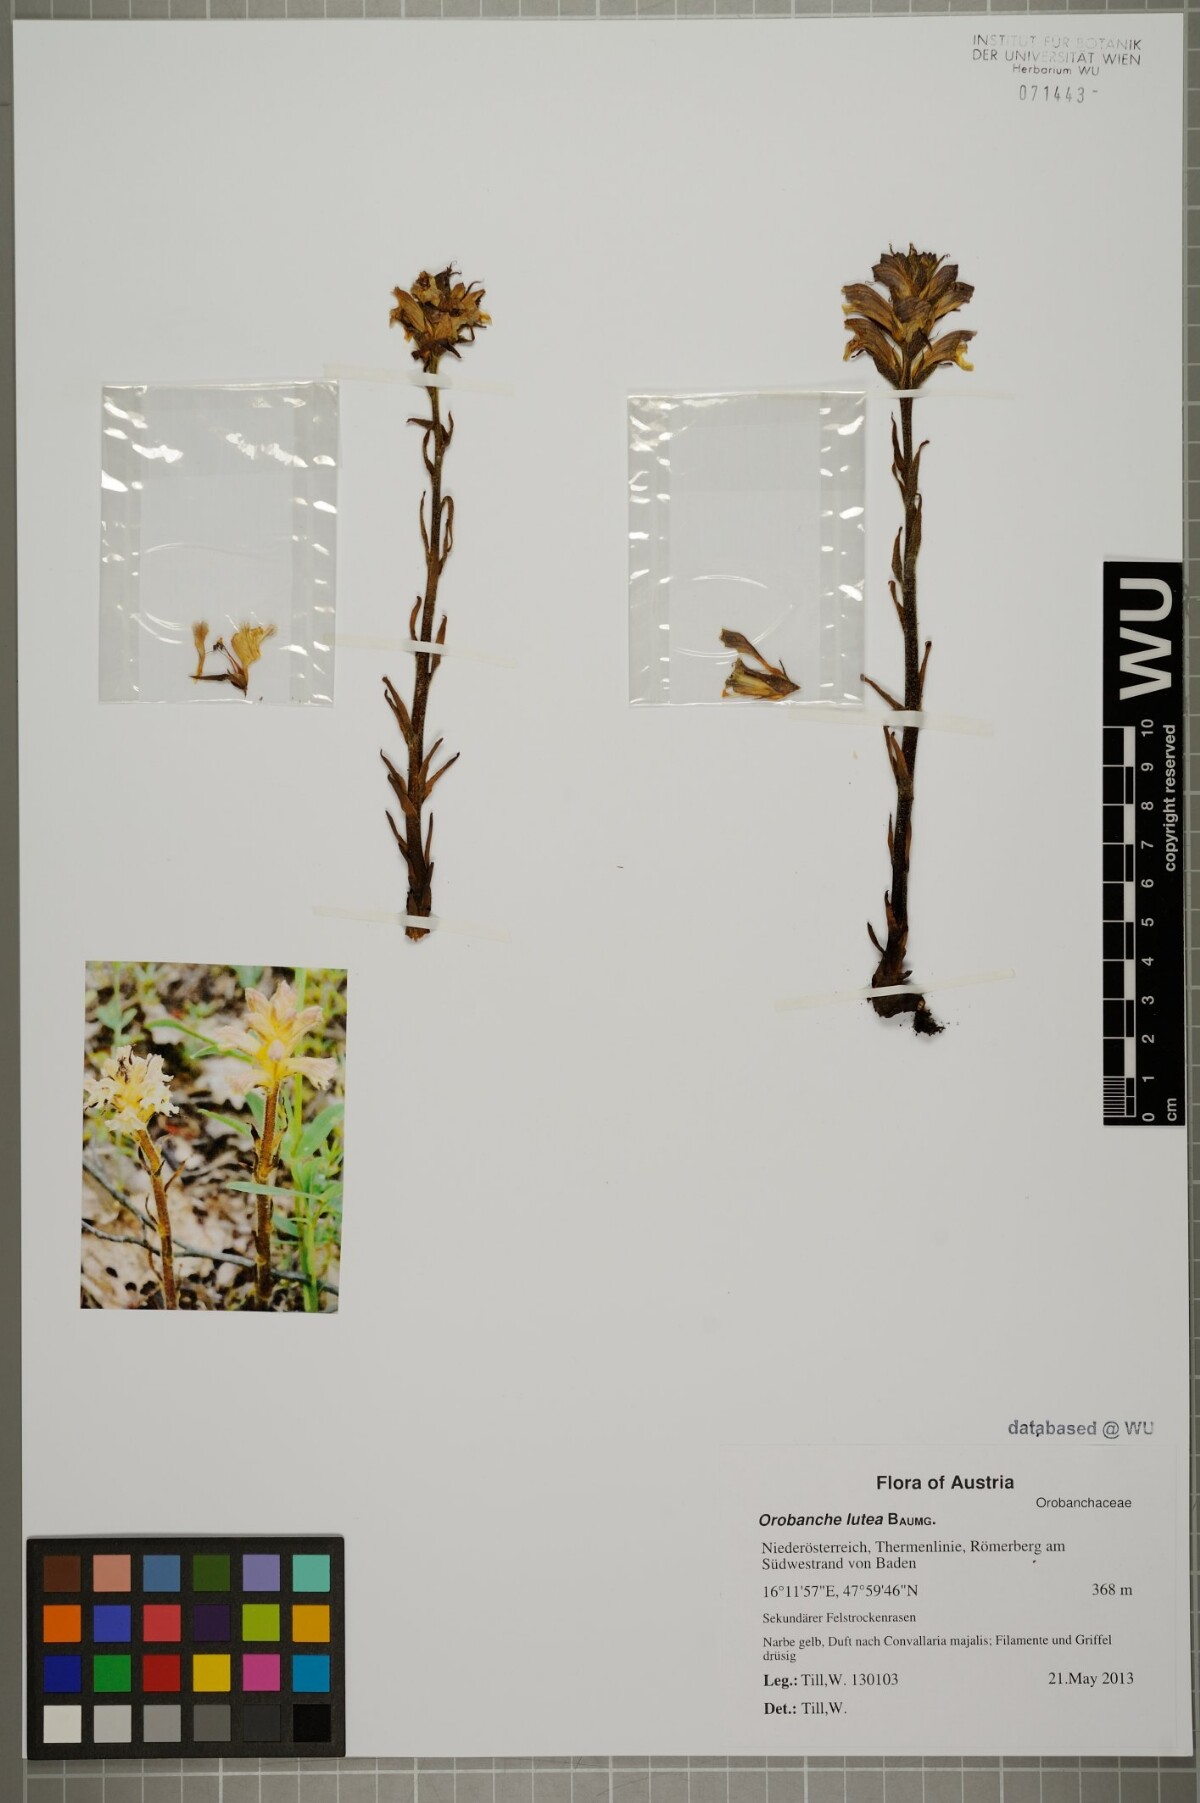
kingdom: Plantae
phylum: Tracheophyta
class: Magnoliopsida
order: Lamiales
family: Orobanchaceae
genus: Orobanche
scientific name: Orobanche lutea
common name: Yellow broomrape
